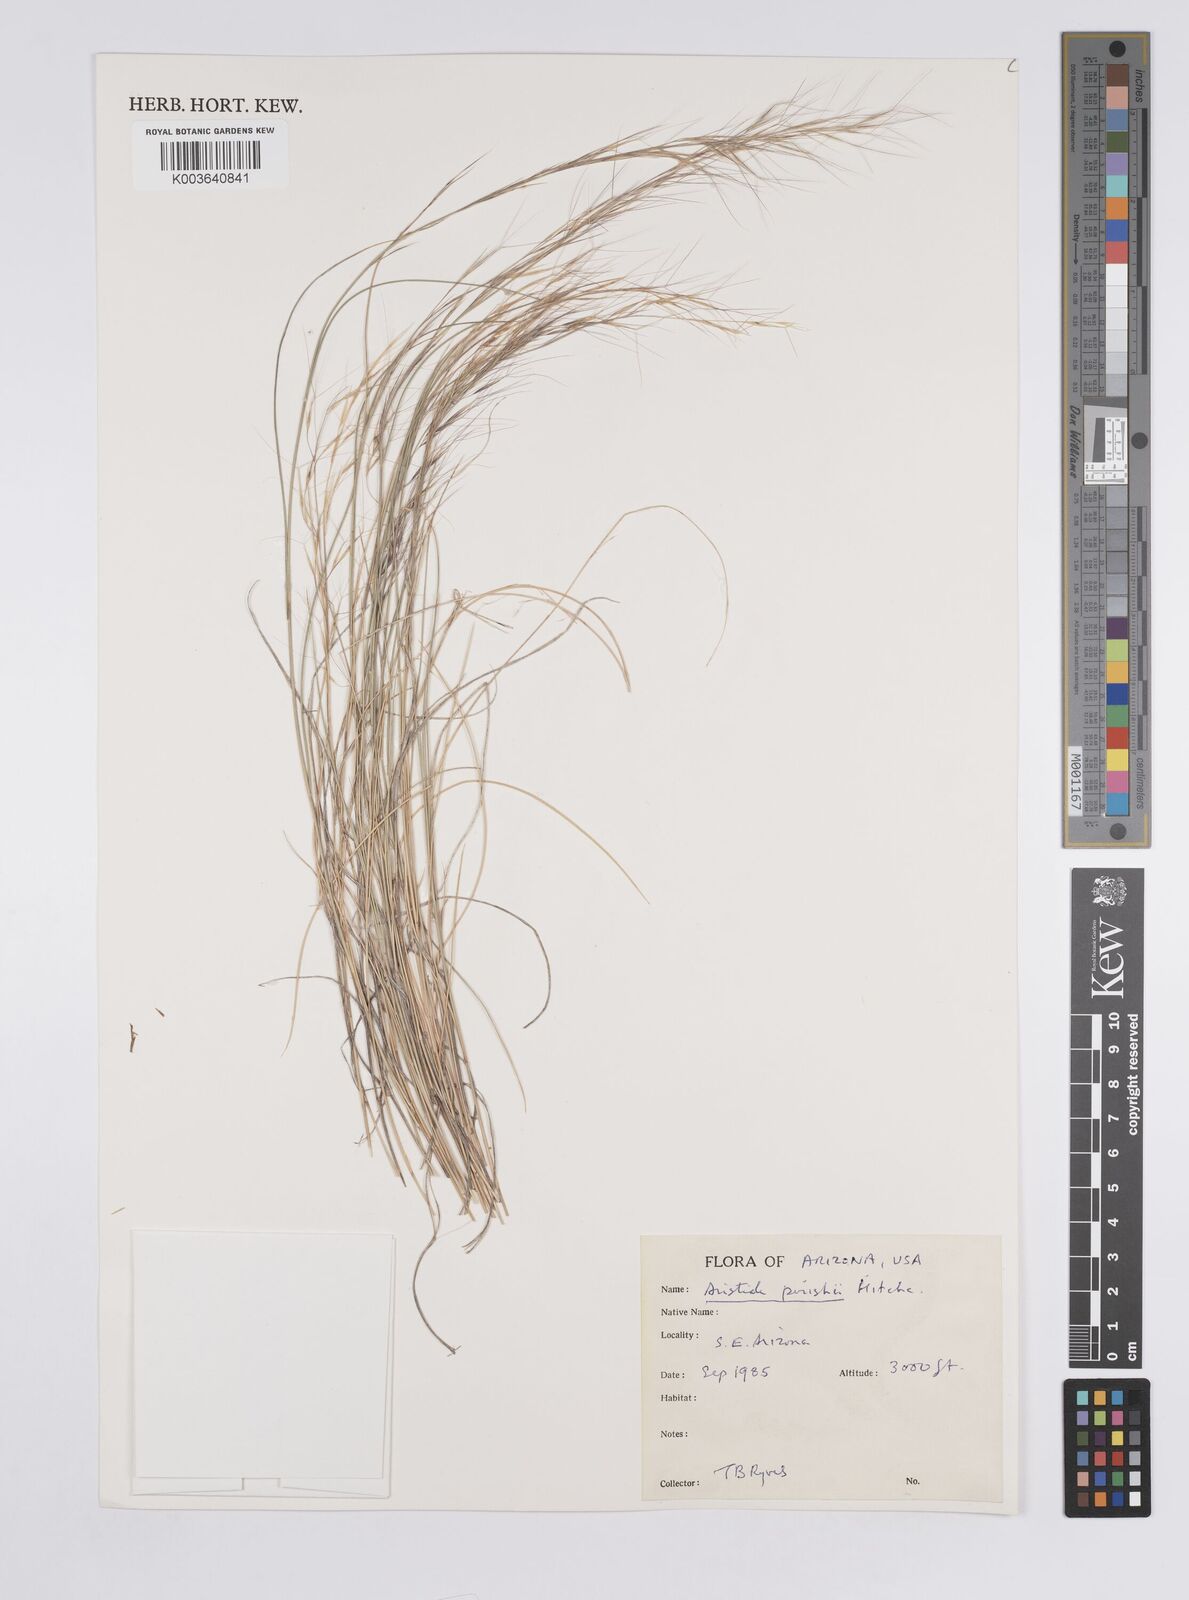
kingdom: Plantae
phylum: Tracheophyta
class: Liliopsida
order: Poales
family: Poaceae
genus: Aristida
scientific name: Aristida purpurea
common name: Purple threeawn
